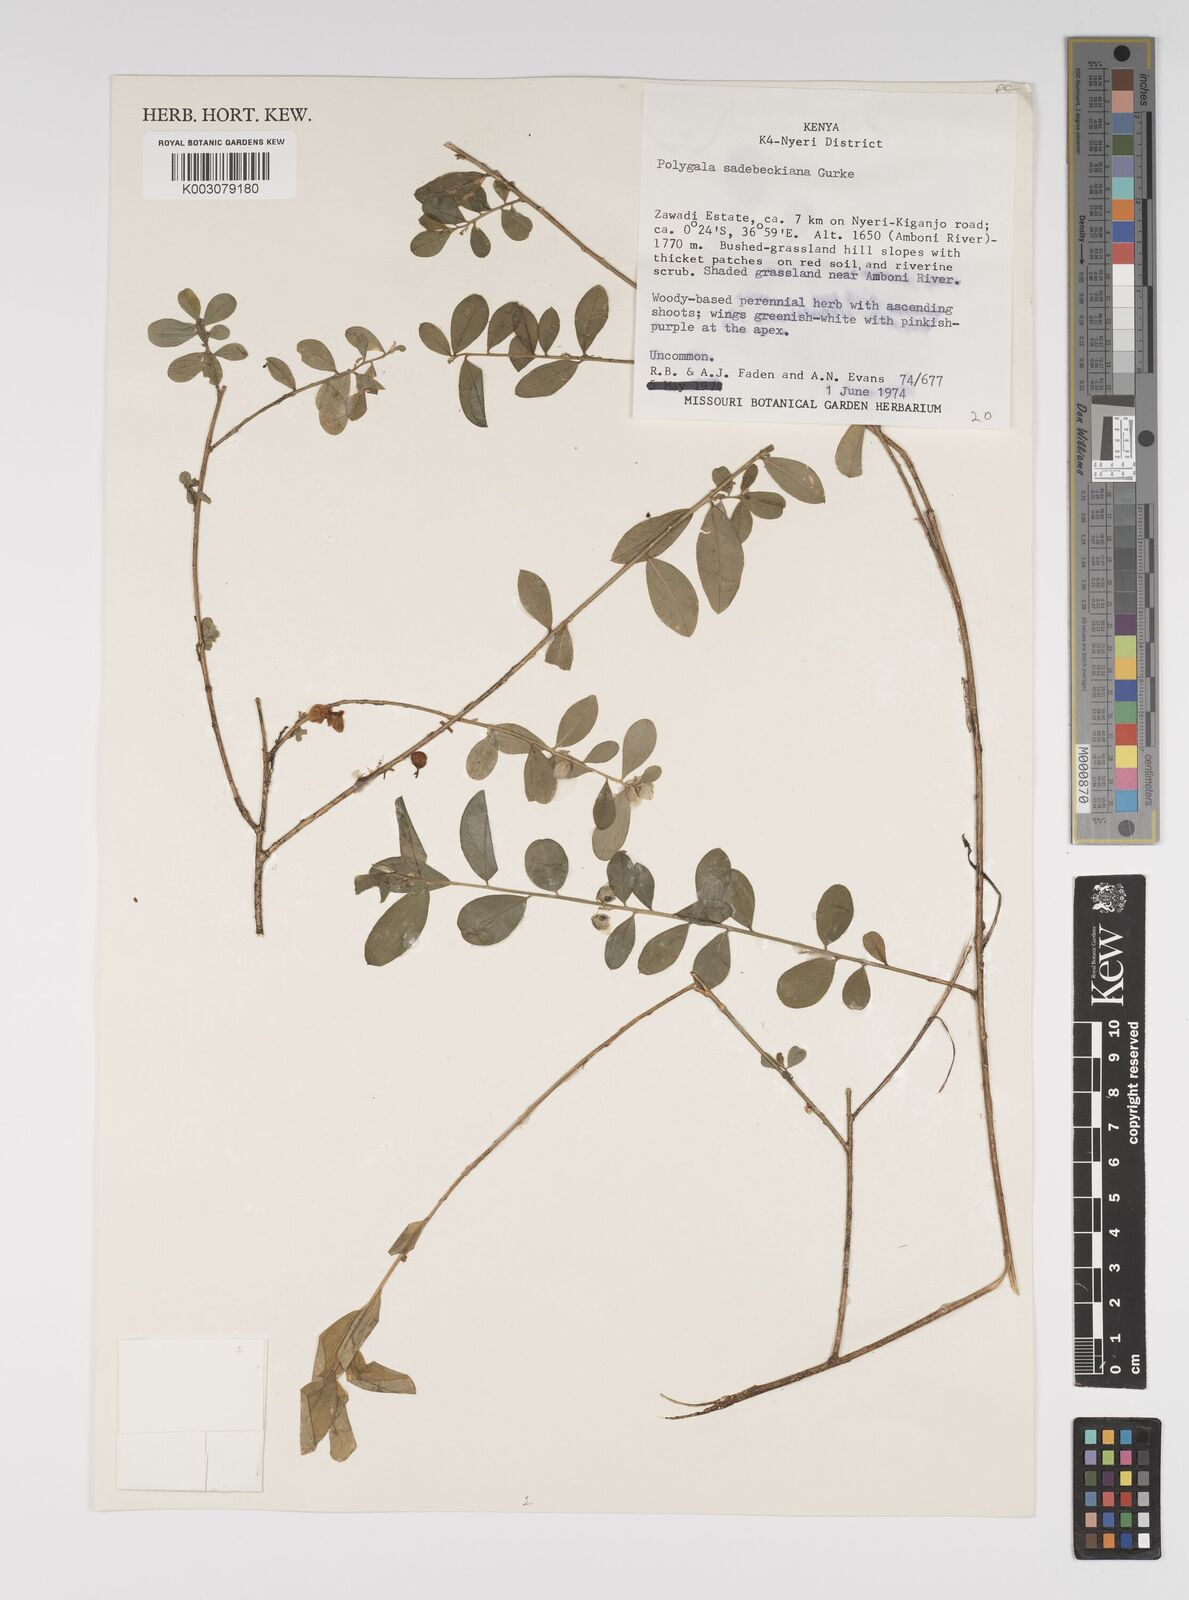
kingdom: Plantae
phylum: Tracheophyta
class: Magnoliopsida
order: Fabales
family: Polygalaceae
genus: Polygala
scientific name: Polygala sadebeckiana
